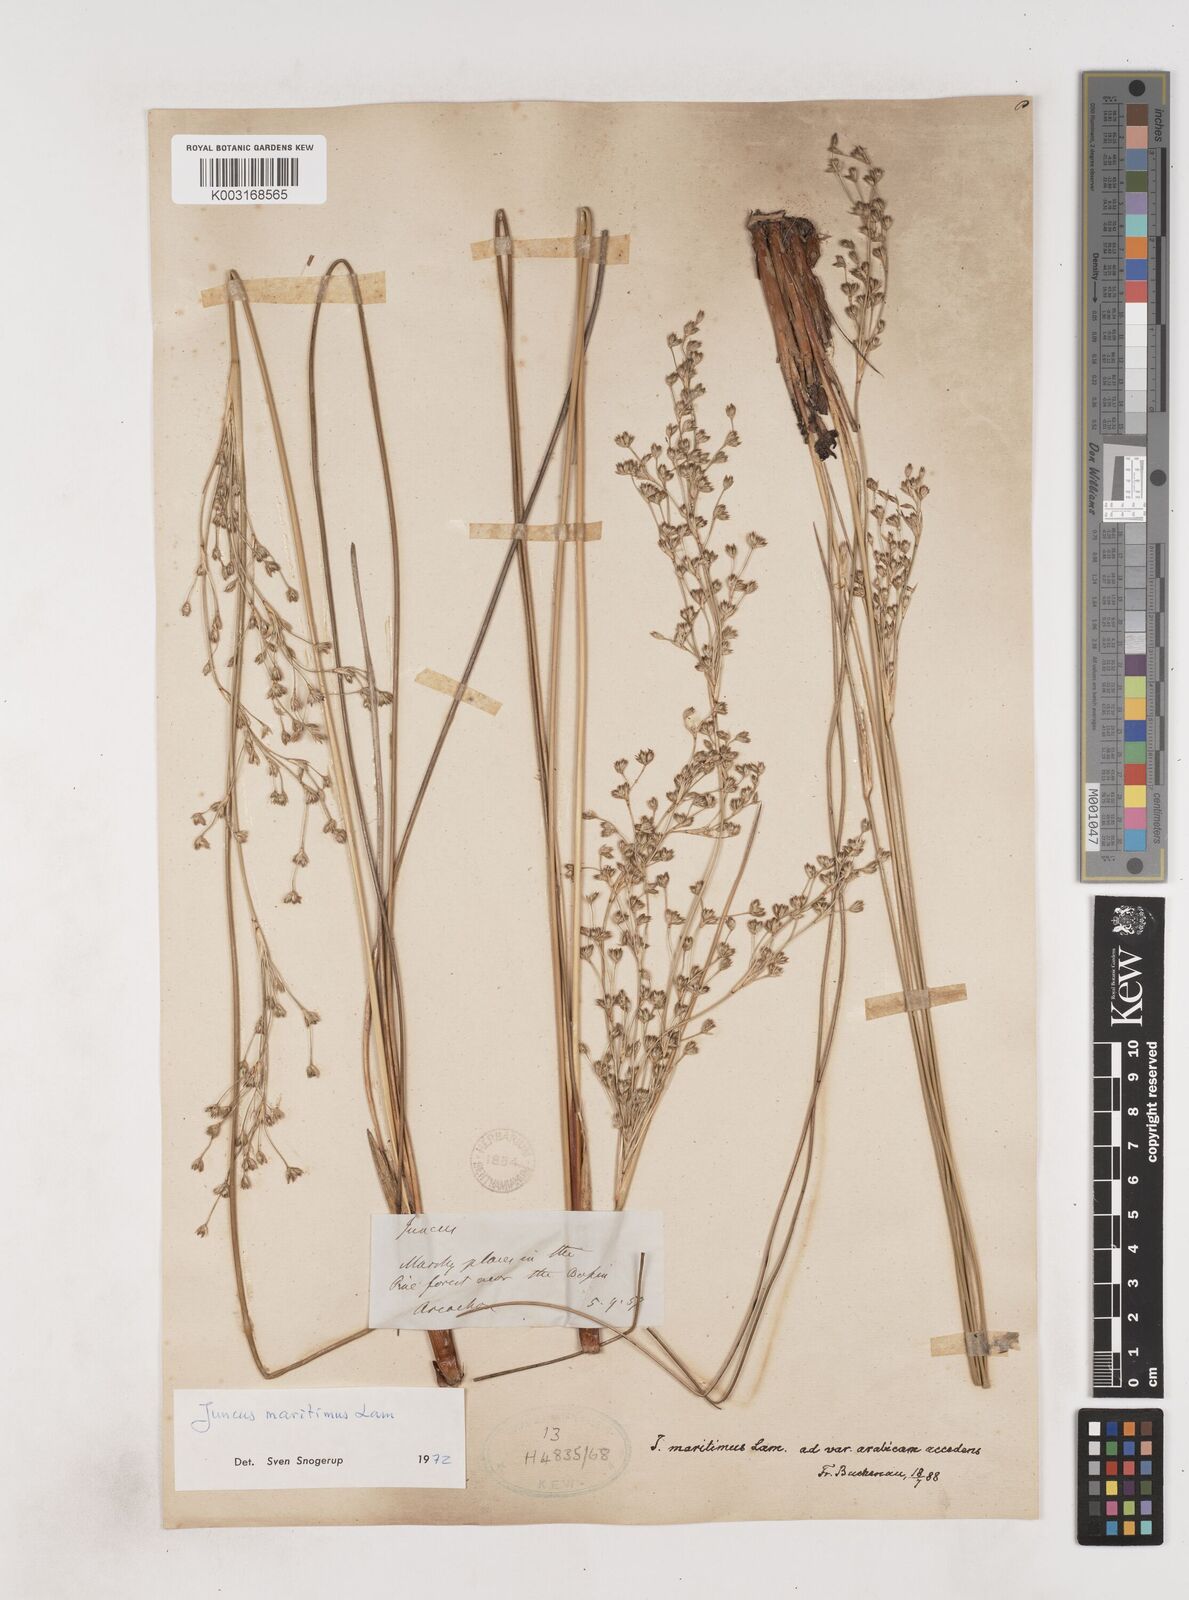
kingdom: Plantae
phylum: Tracheophyta
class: Liliopsida
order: Poales
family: Juncaceae
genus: Juncus
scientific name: Juncus maritimus
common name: Sea rush
